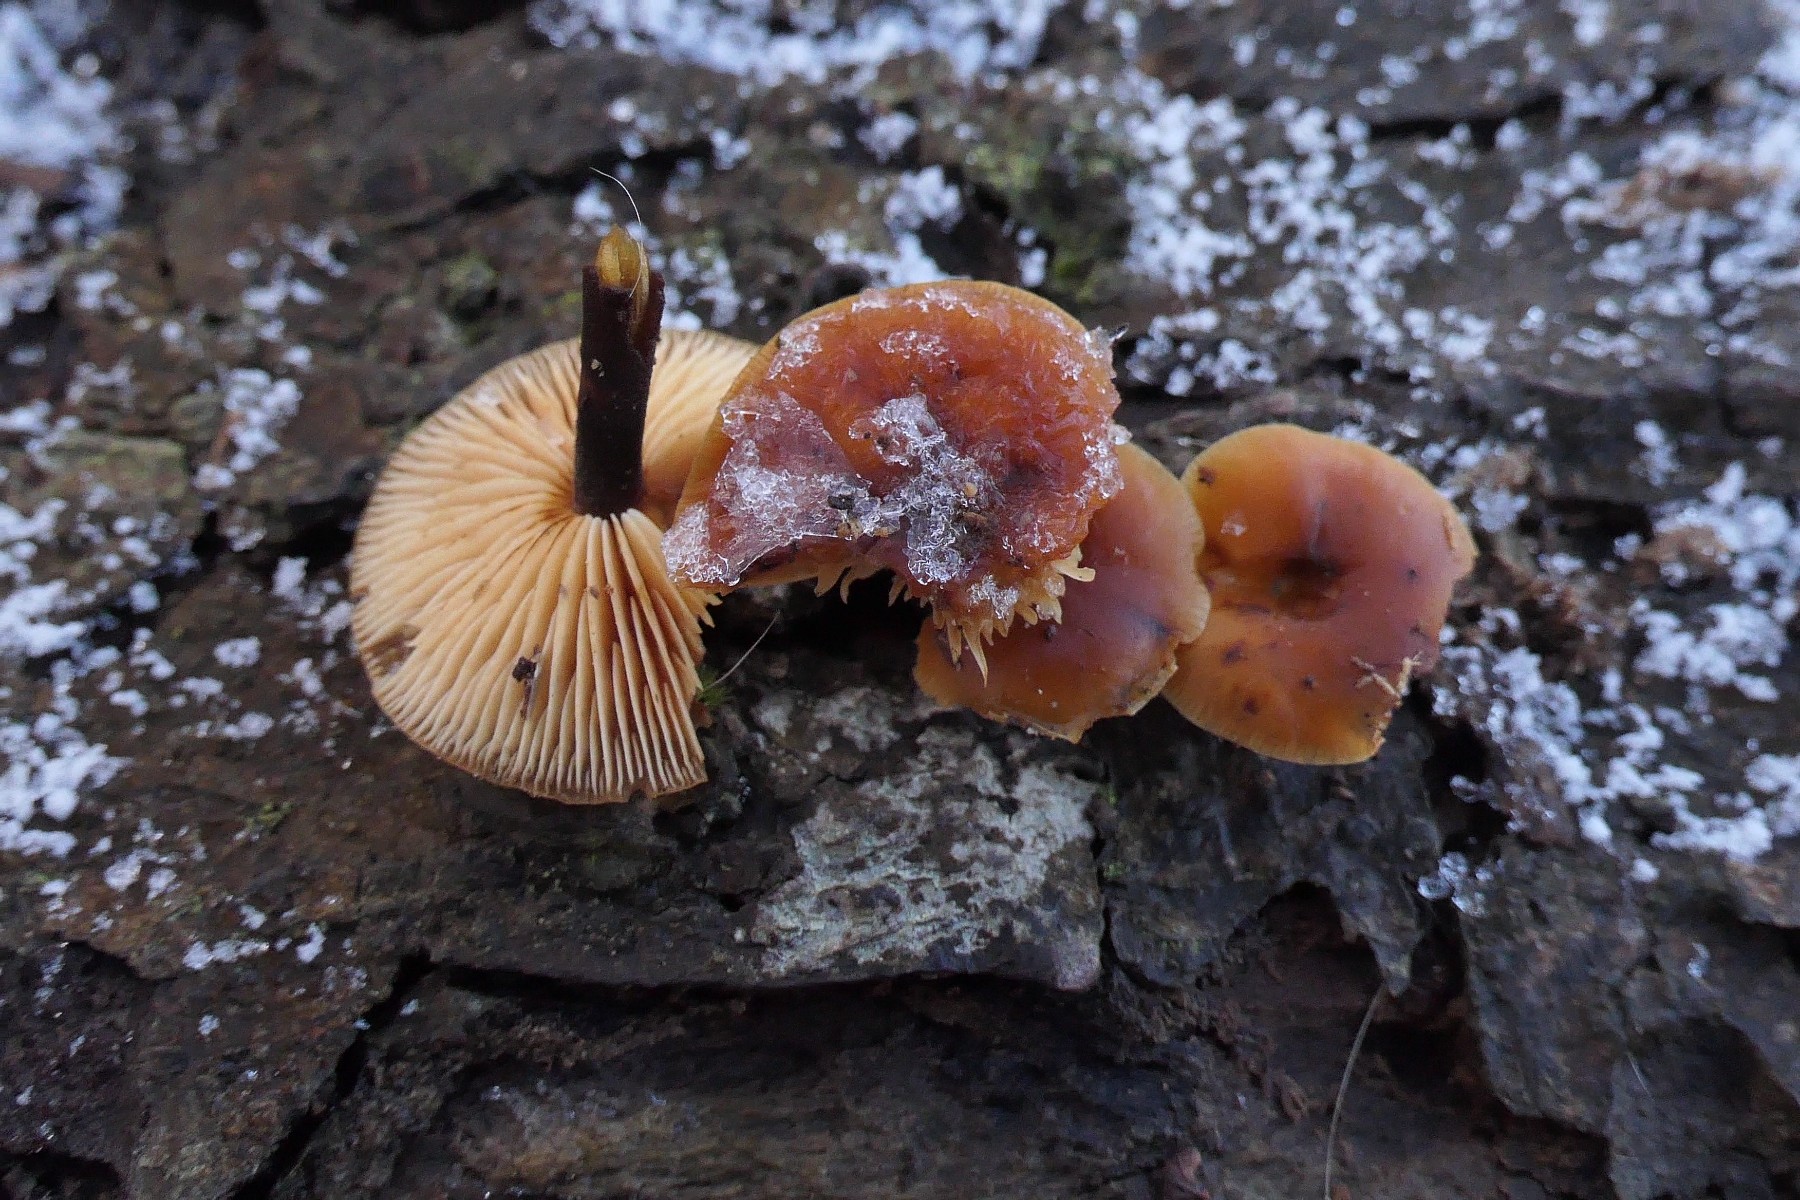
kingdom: Fungi
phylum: Basidiomycota
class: Agaricomycetes
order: Agaricales
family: Physalacriaceae
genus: Flammulina
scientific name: Flammulina velutipes
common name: gul fløjlsfod
